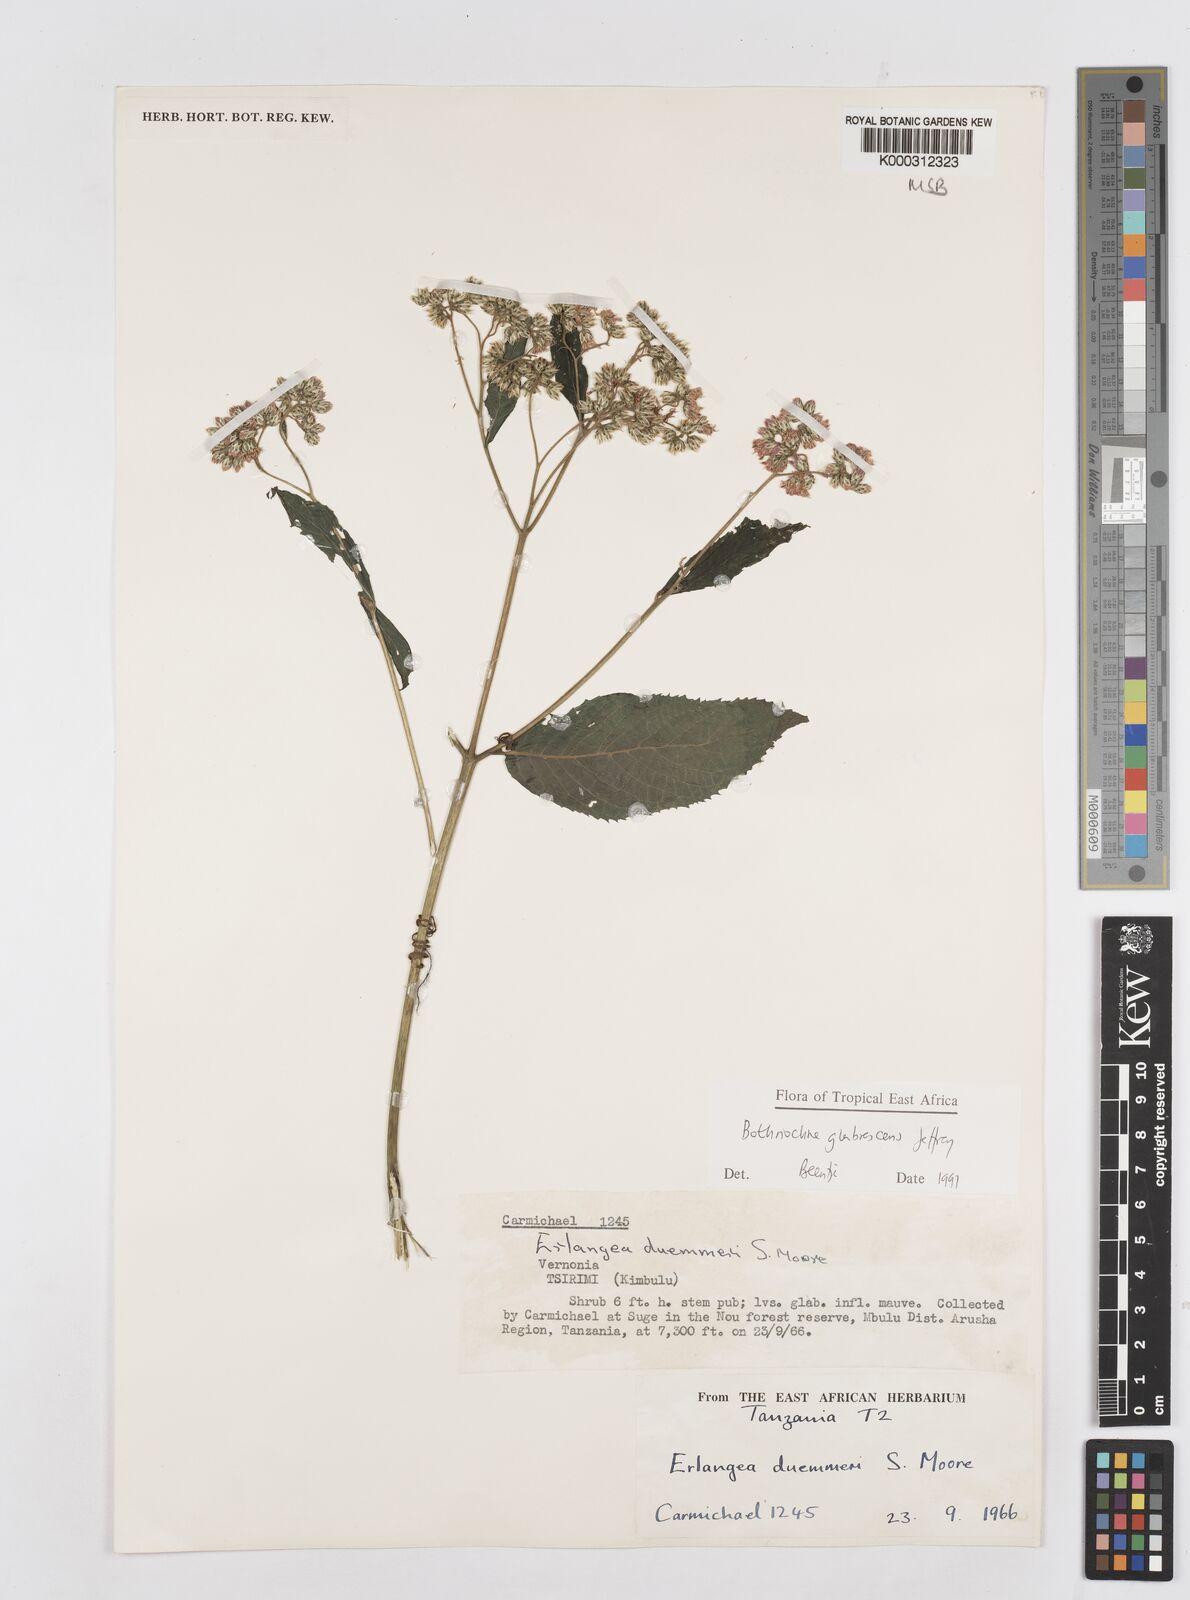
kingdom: Plantae
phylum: Tracheophyta
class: Magnoliopsida
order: Asterales
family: Asteraceae
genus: Bothriocline
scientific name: Bothriocline glabrescens
